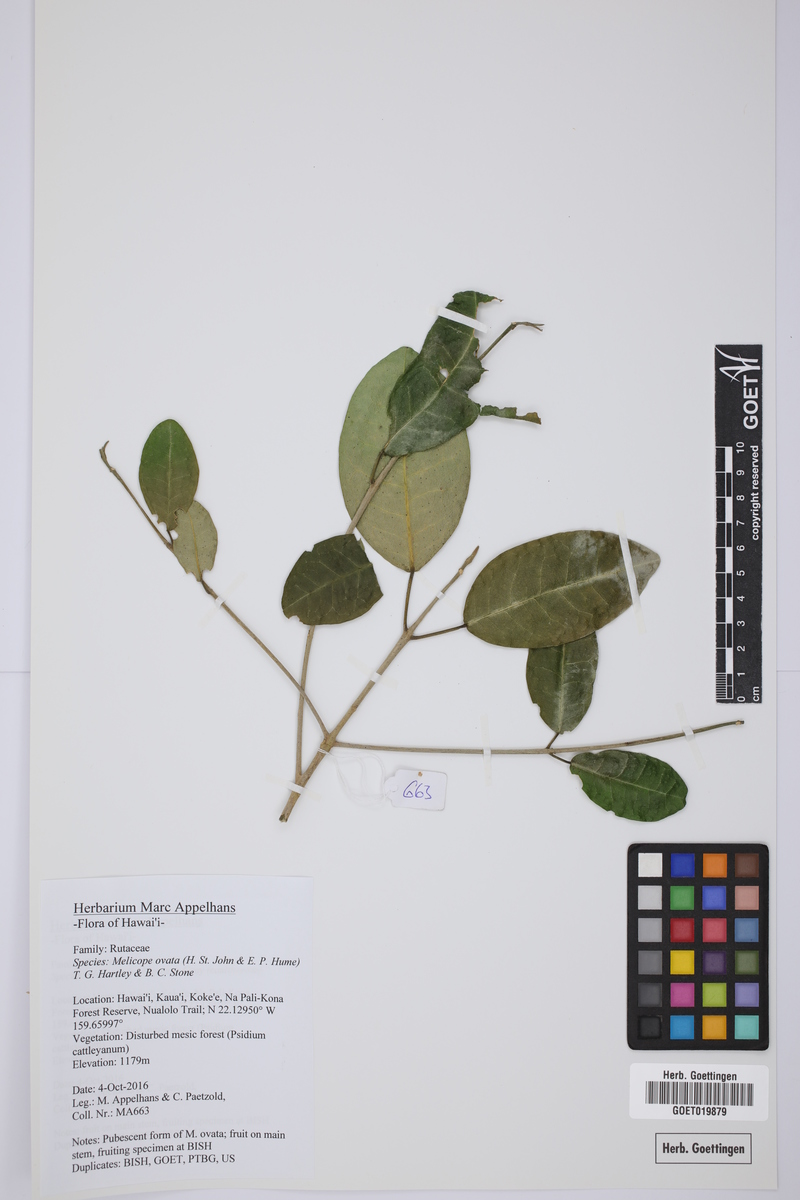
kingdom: Plantae
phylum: Tracheophyta
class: Magnoliopsida
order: Sapindales
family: Rutaceae
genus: Melicope
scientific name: Melicope ovata
